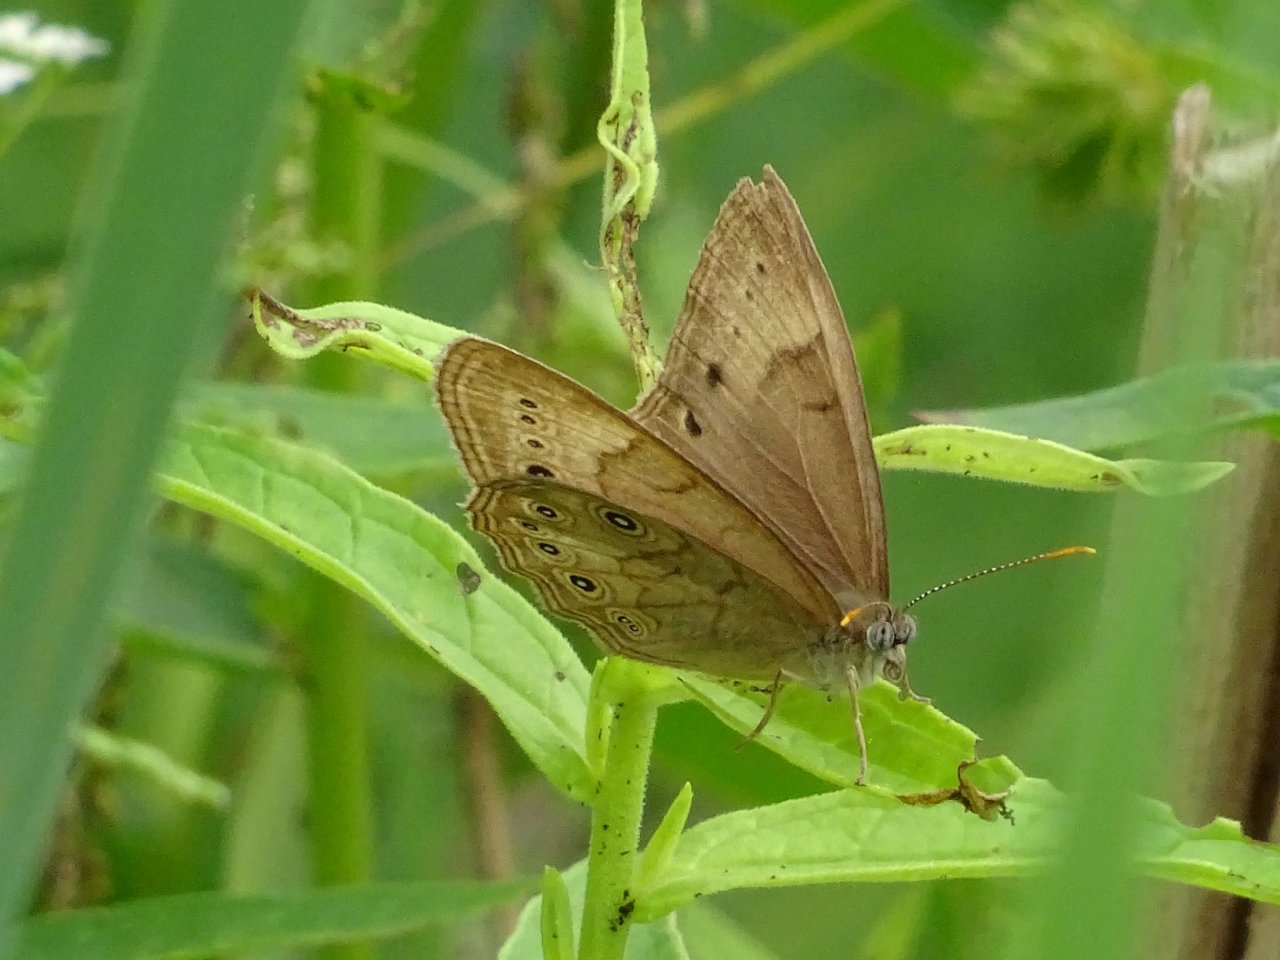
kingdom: Animalia
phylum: Arthropoda
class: Insecta
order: Lepidoptera
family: Nymphalidae
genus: Lethe
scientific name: Lethe eurydice
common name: Eyed Brown
